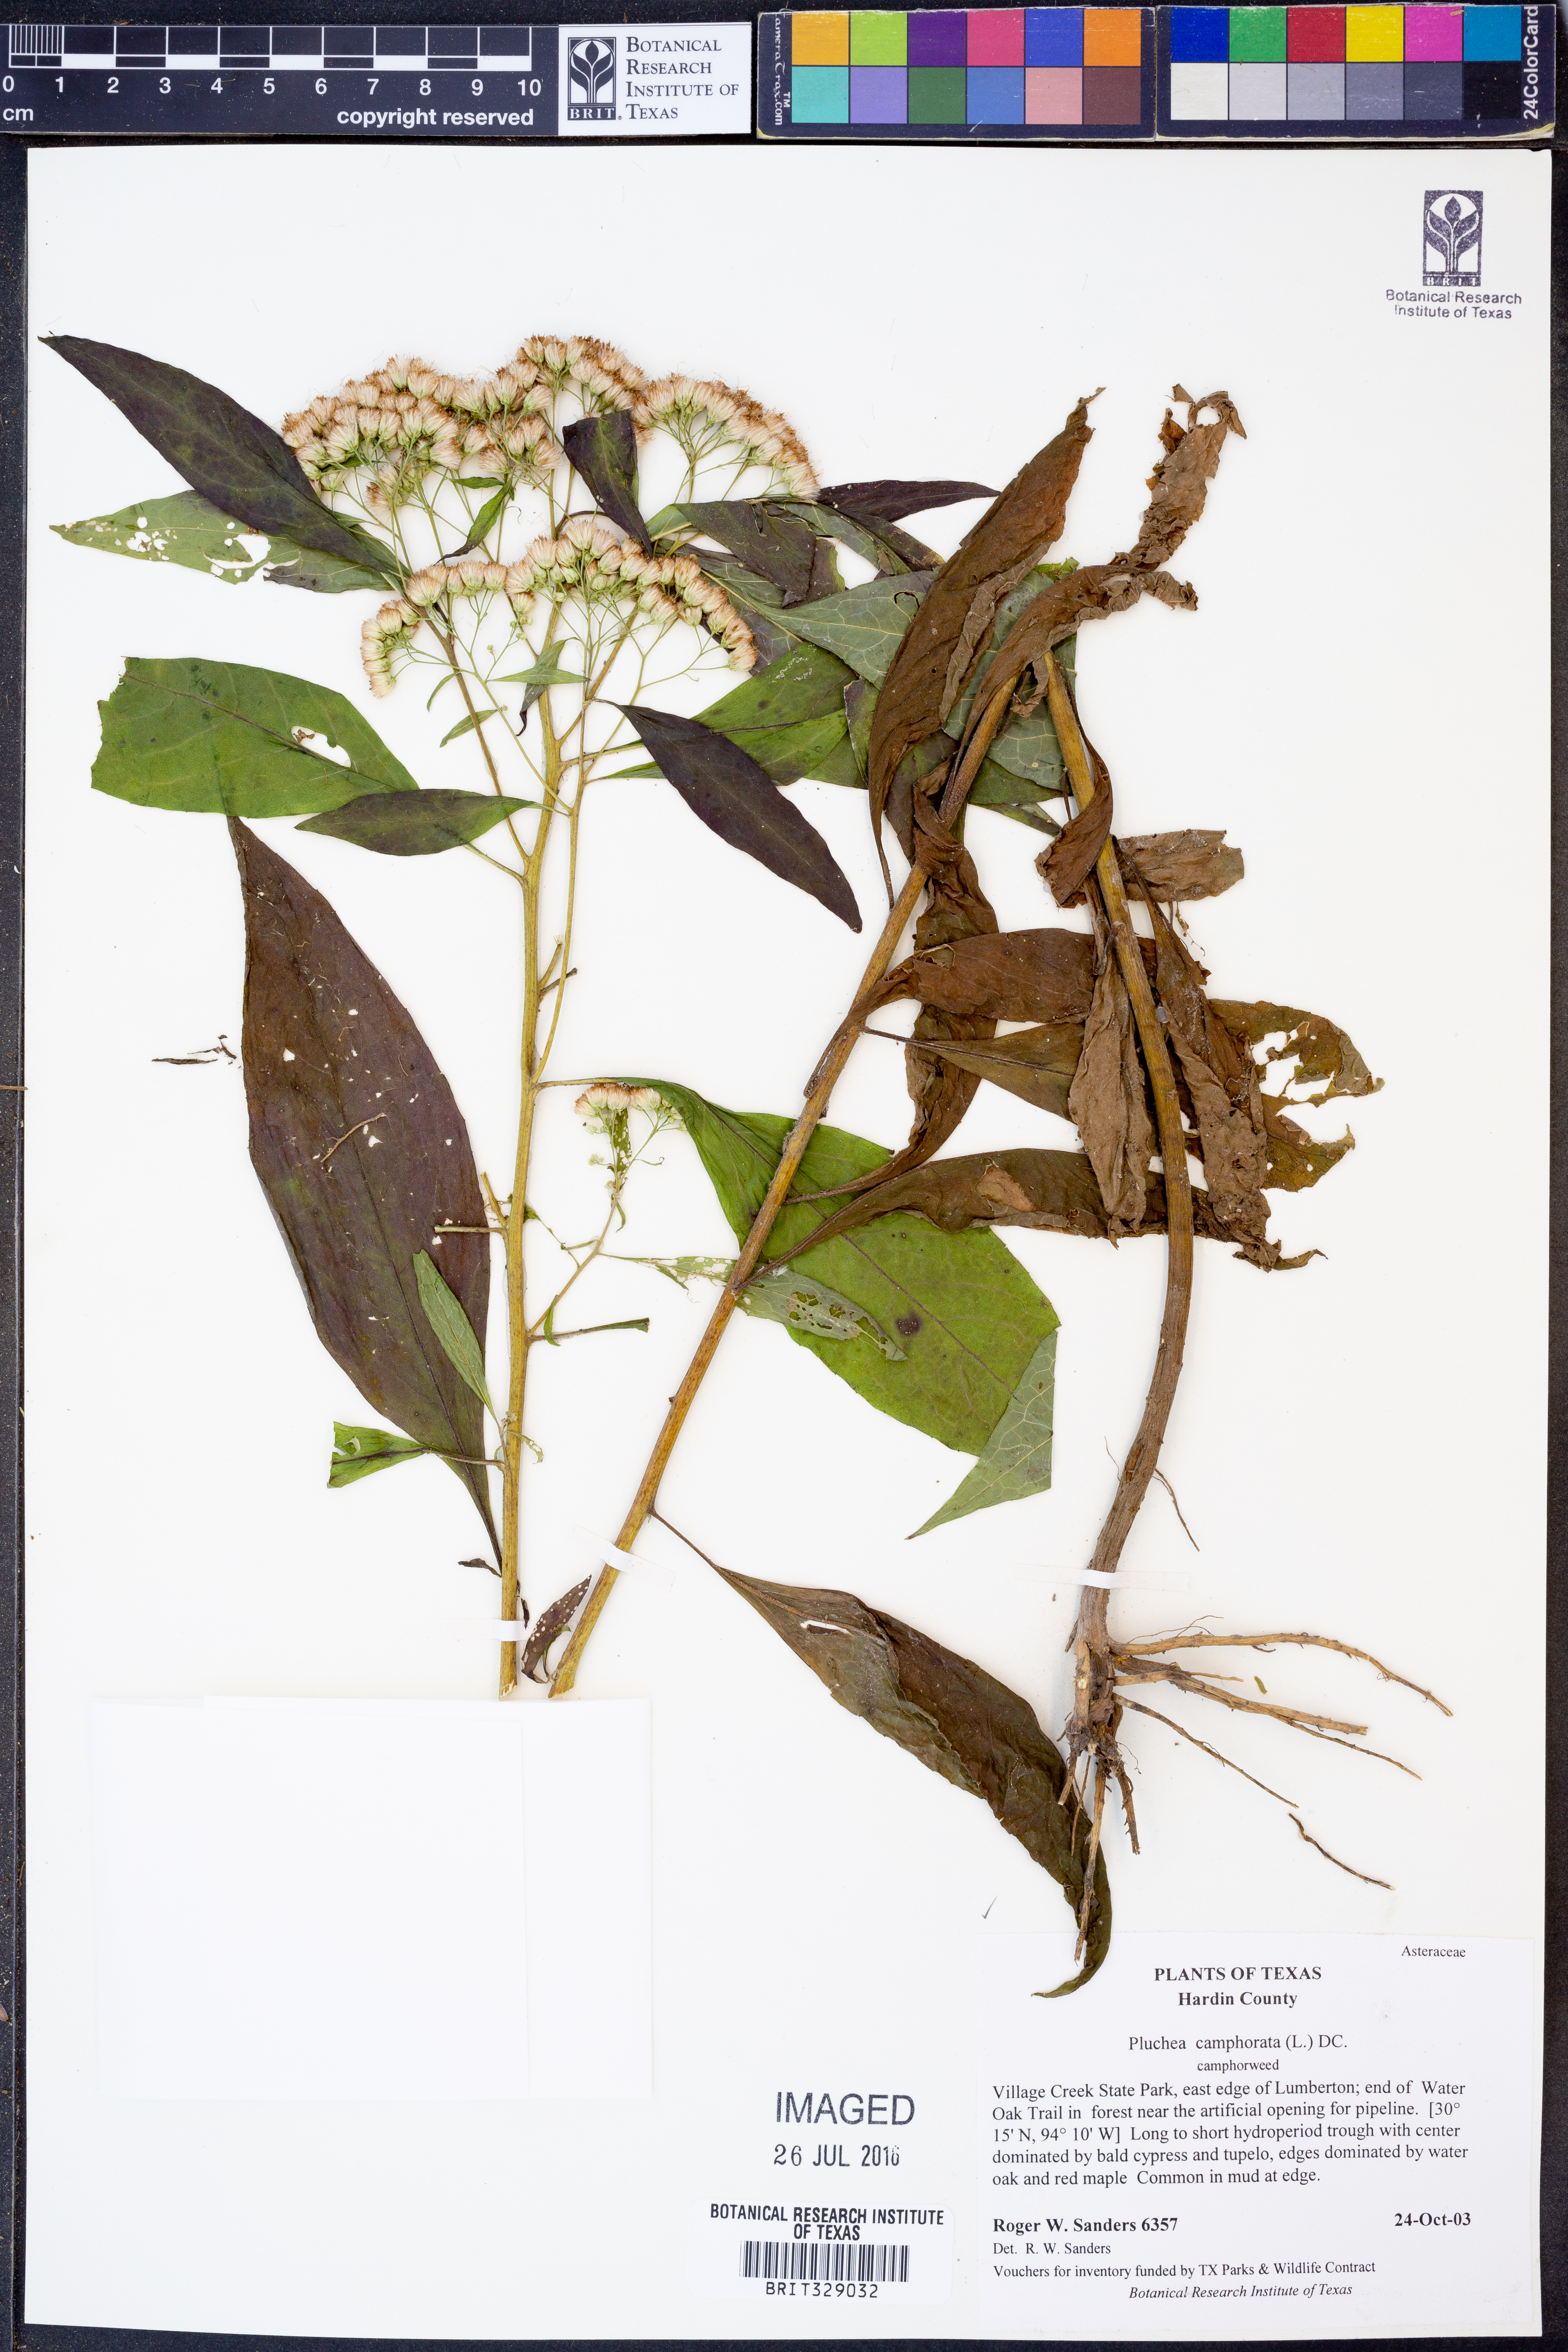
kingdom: Plantae
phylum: Tracheophyta
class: Magnoliopsida
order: Asterales
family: Asteraceae
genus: Pluchea
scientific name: Pluchea camphorata
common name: Camphor pluchea
